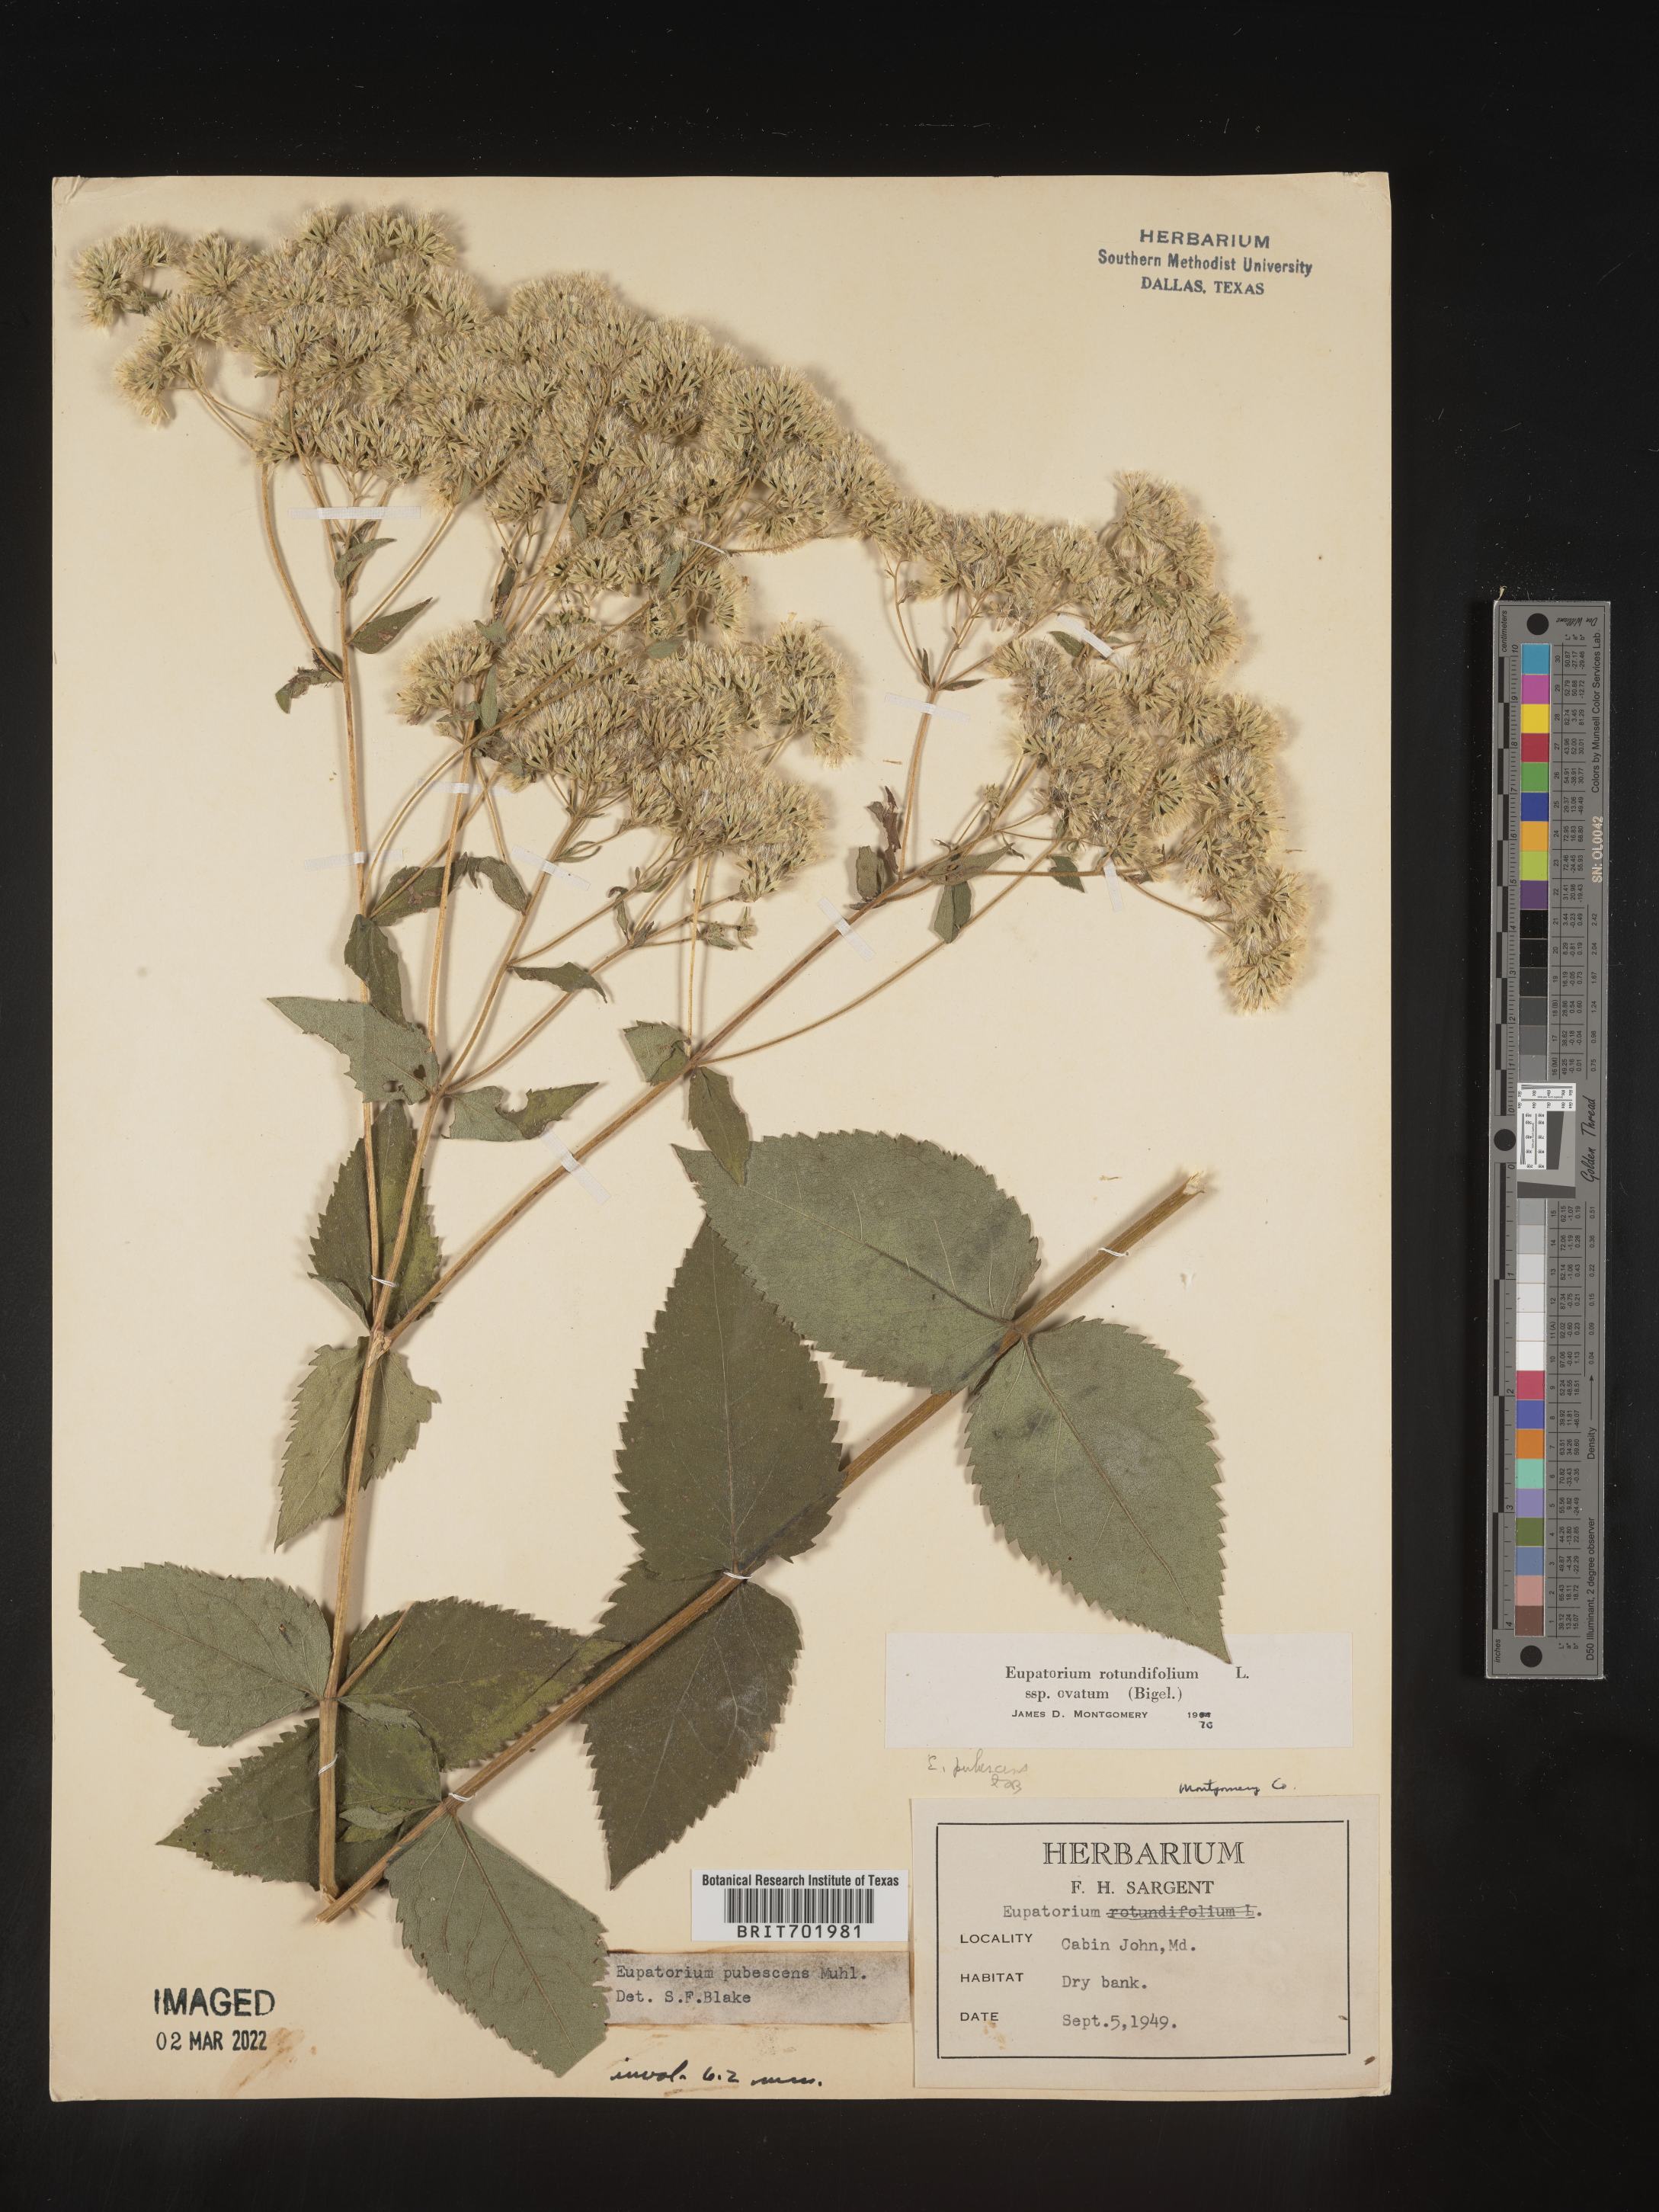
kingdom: Plantae
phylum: Tracheophyta
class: Magnoliopsida
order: Asterales
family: Asteraceae
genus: Eupatorium
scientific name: Eupatorium rotundifolium
